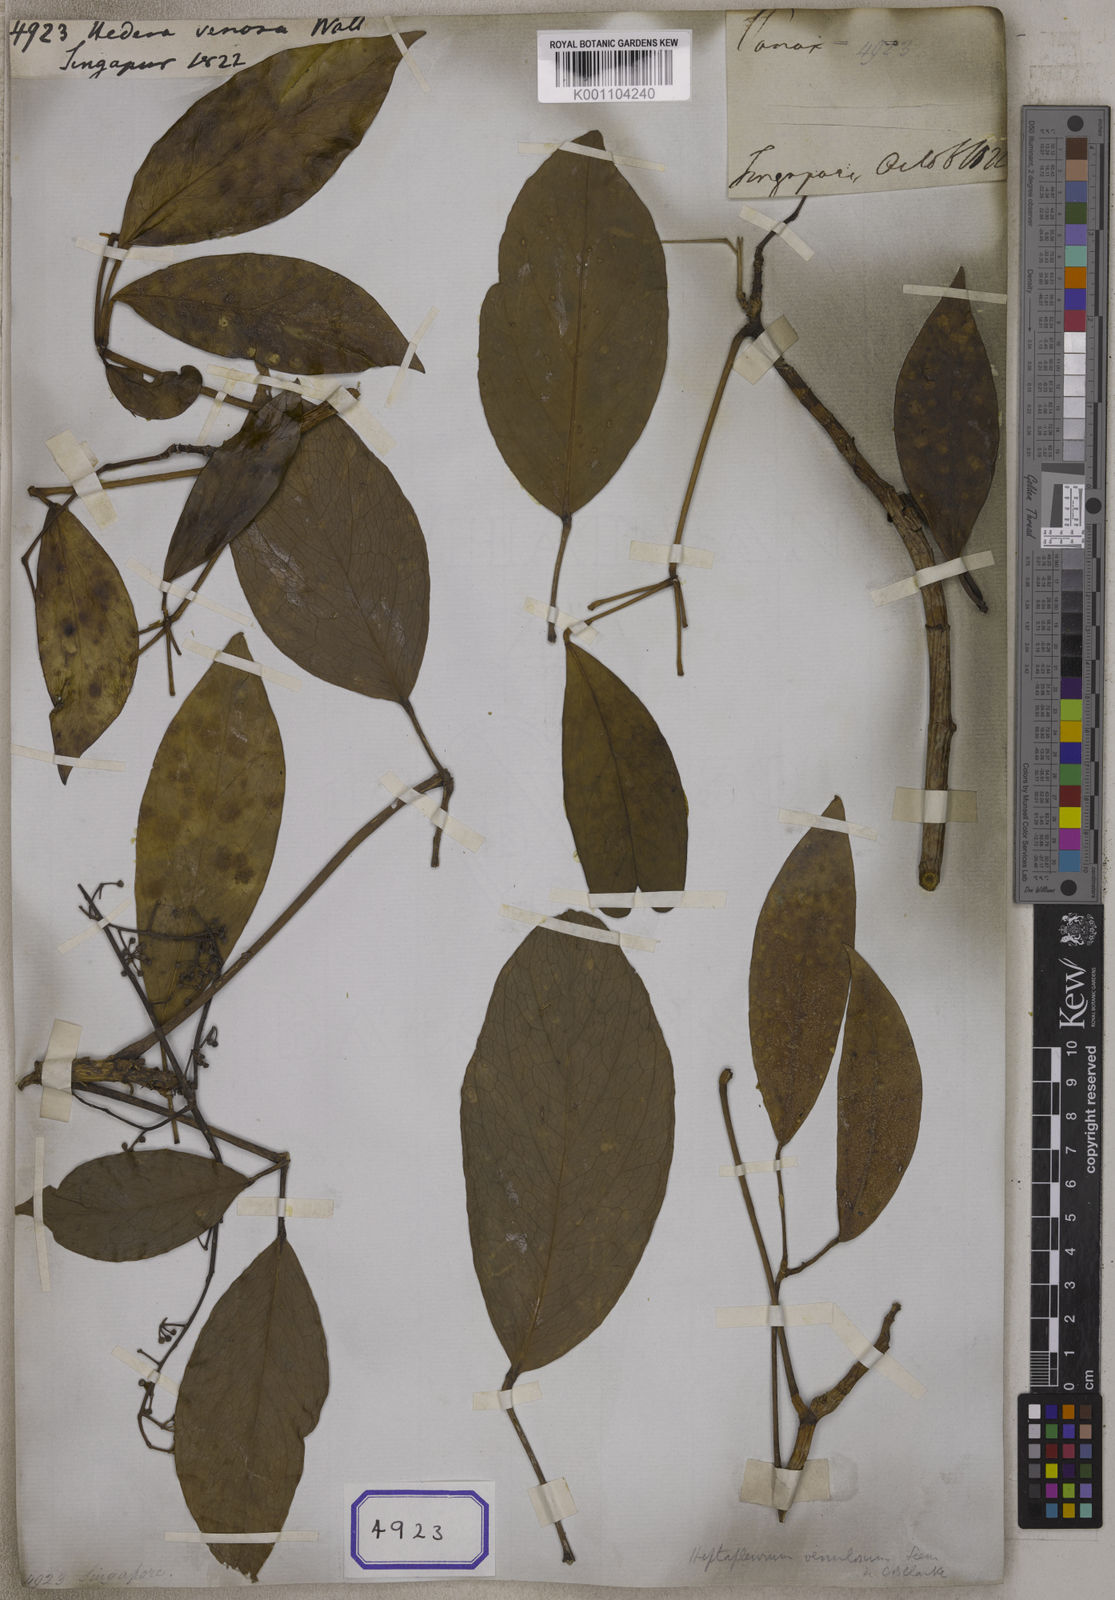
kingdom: Plantae
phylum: Tracheophyta
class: Magnoliopsida
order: Apiales
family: Araliaceae
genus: Heptapleurum
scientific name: Heptapleurum ellipticum
